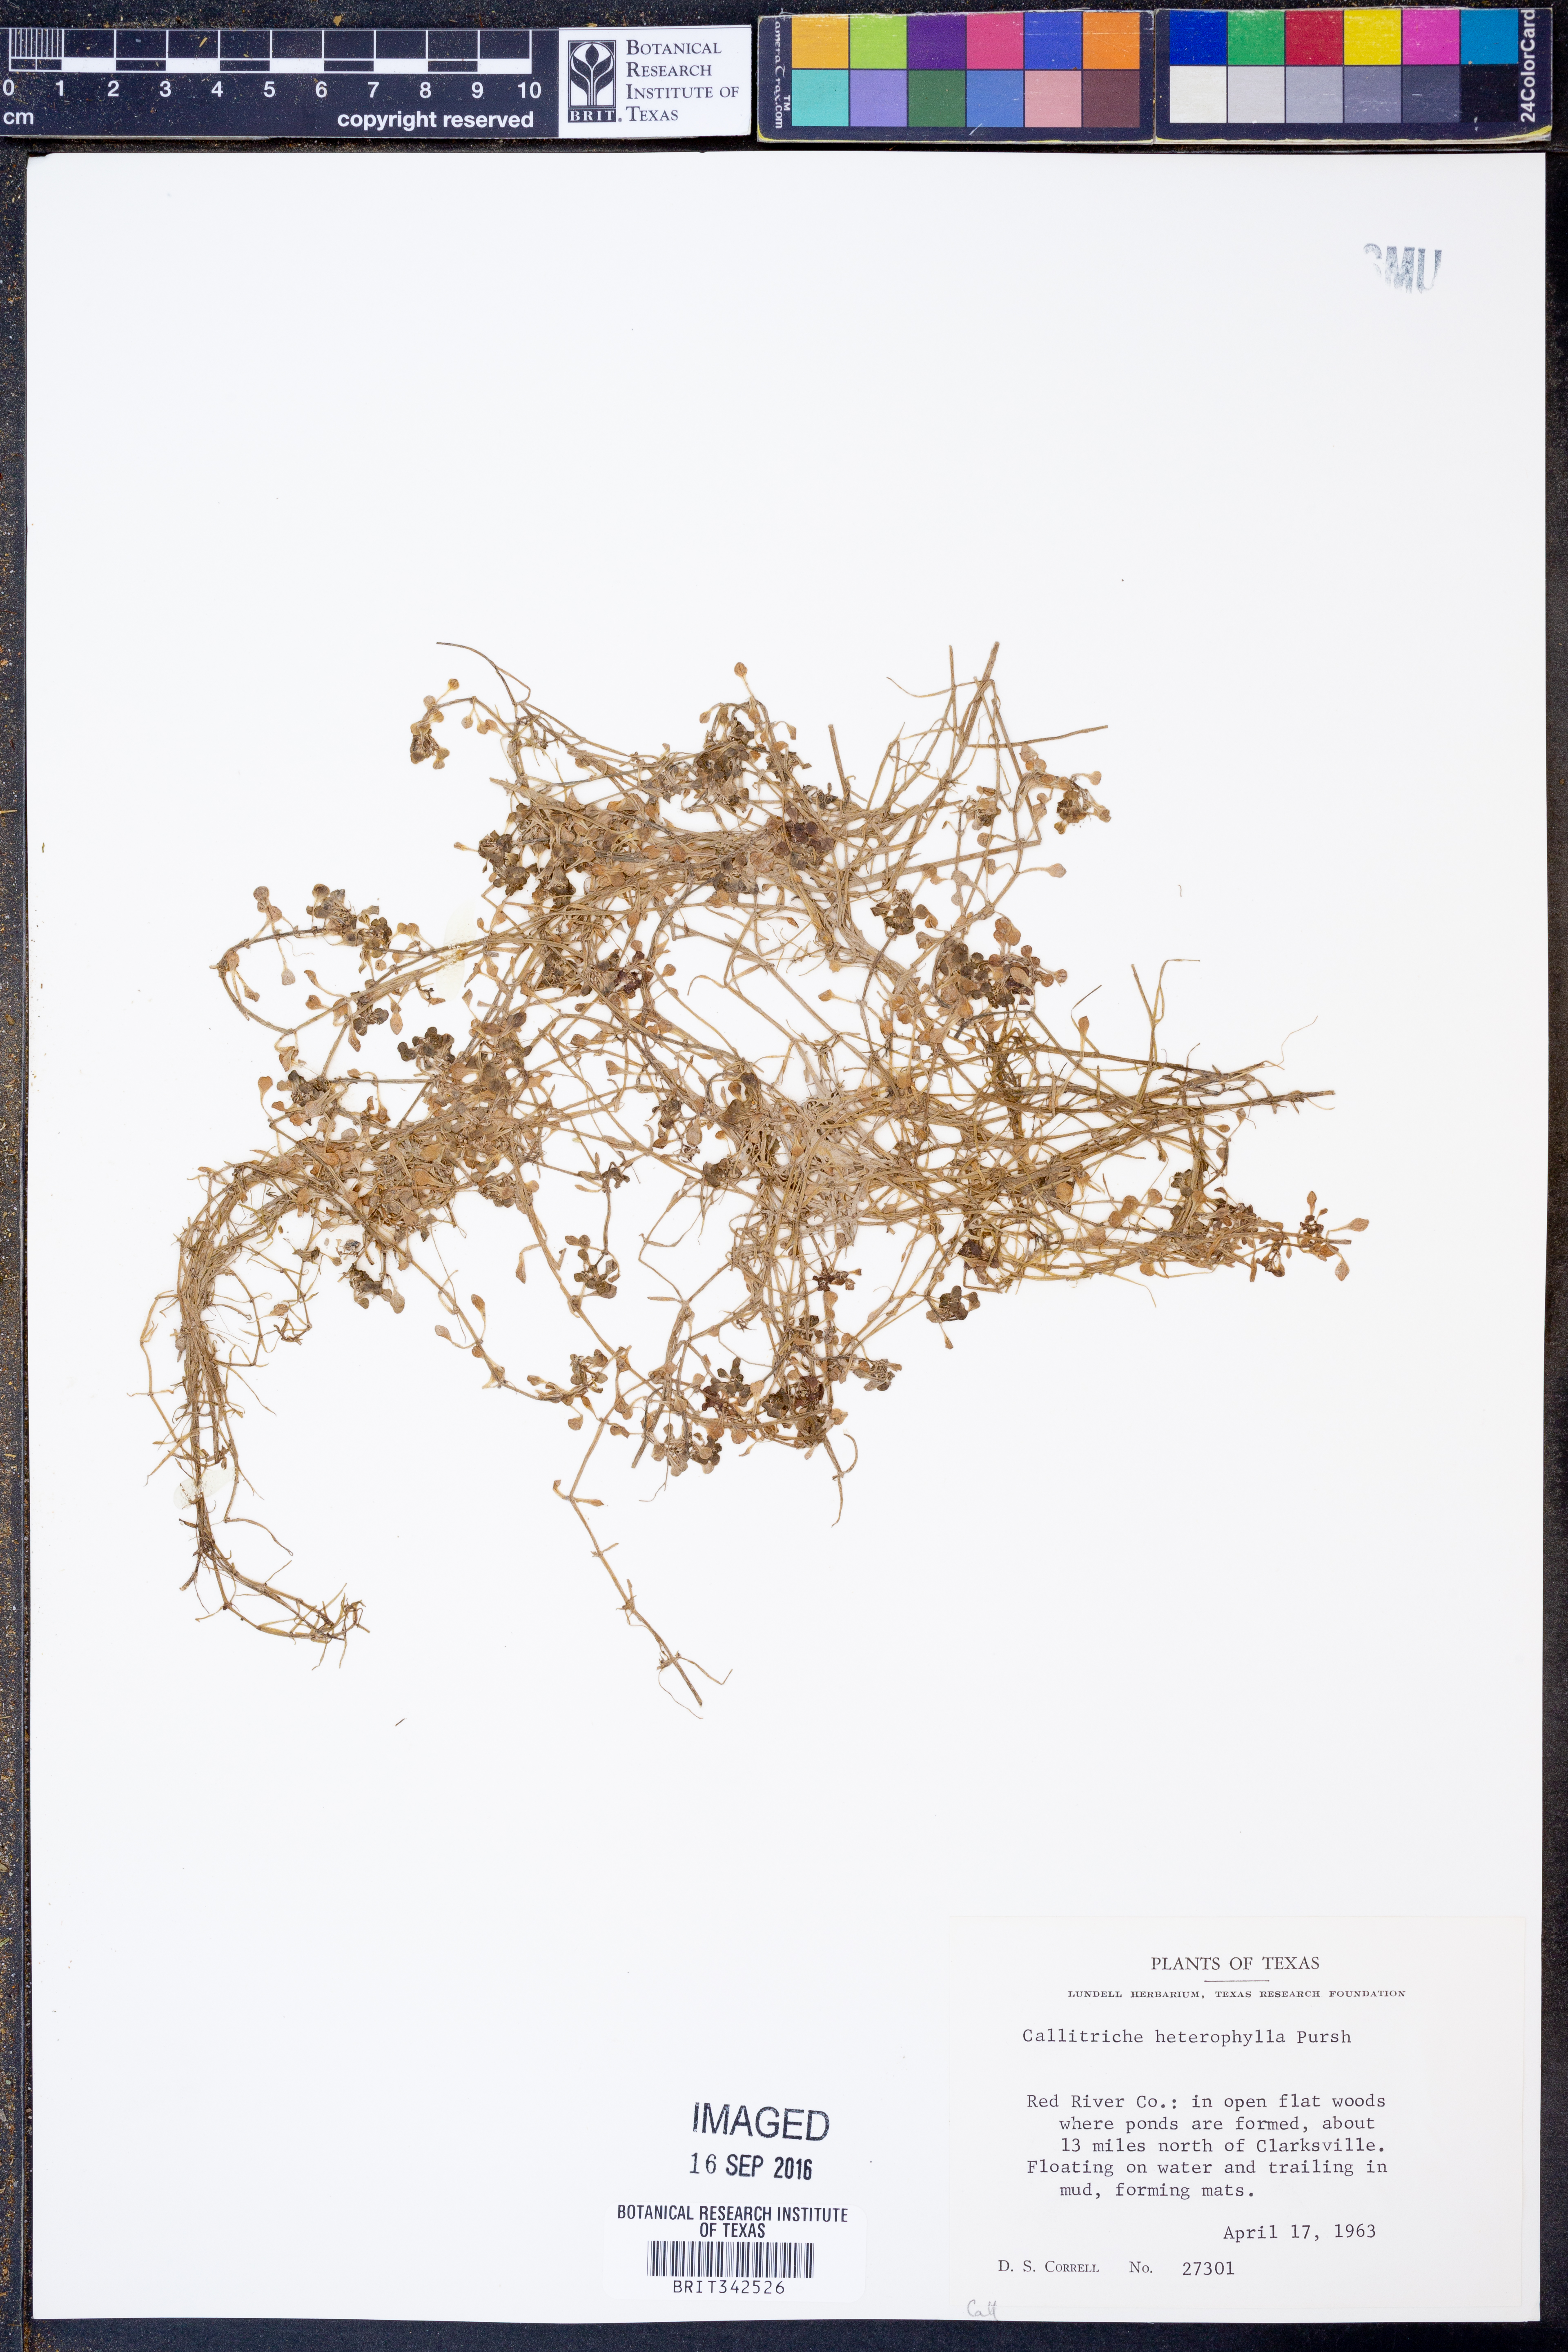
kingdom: Plantae
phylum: Tracheophyta
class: Magnoliopsida
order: Lamiales
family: Plantaginaceae
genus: Callitriche
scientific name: Callitriche heterophylla
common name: Two-headed water-starwort
